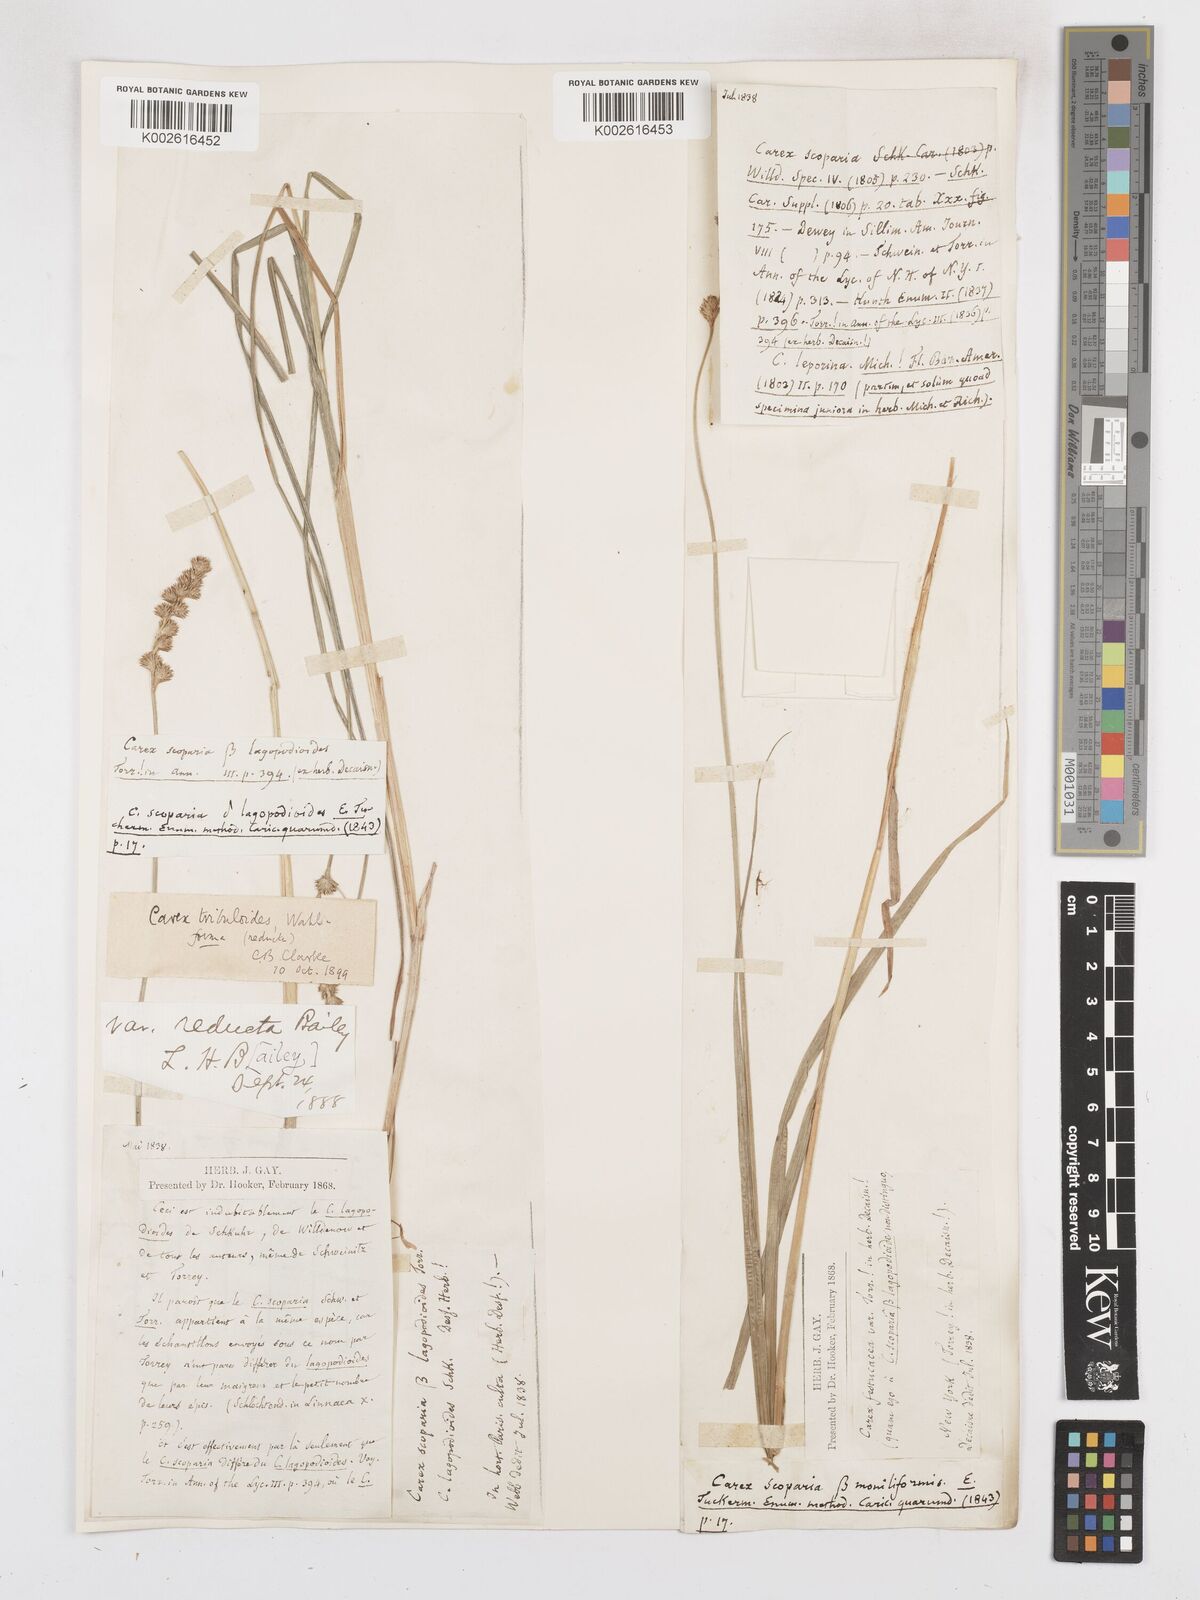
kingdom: Plantae
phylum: Tracheophyta
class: Liliopsida
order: Poales
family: Cyperaceae
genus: Carex
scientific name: Carex tribuloides
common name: Blunt broom sedge
